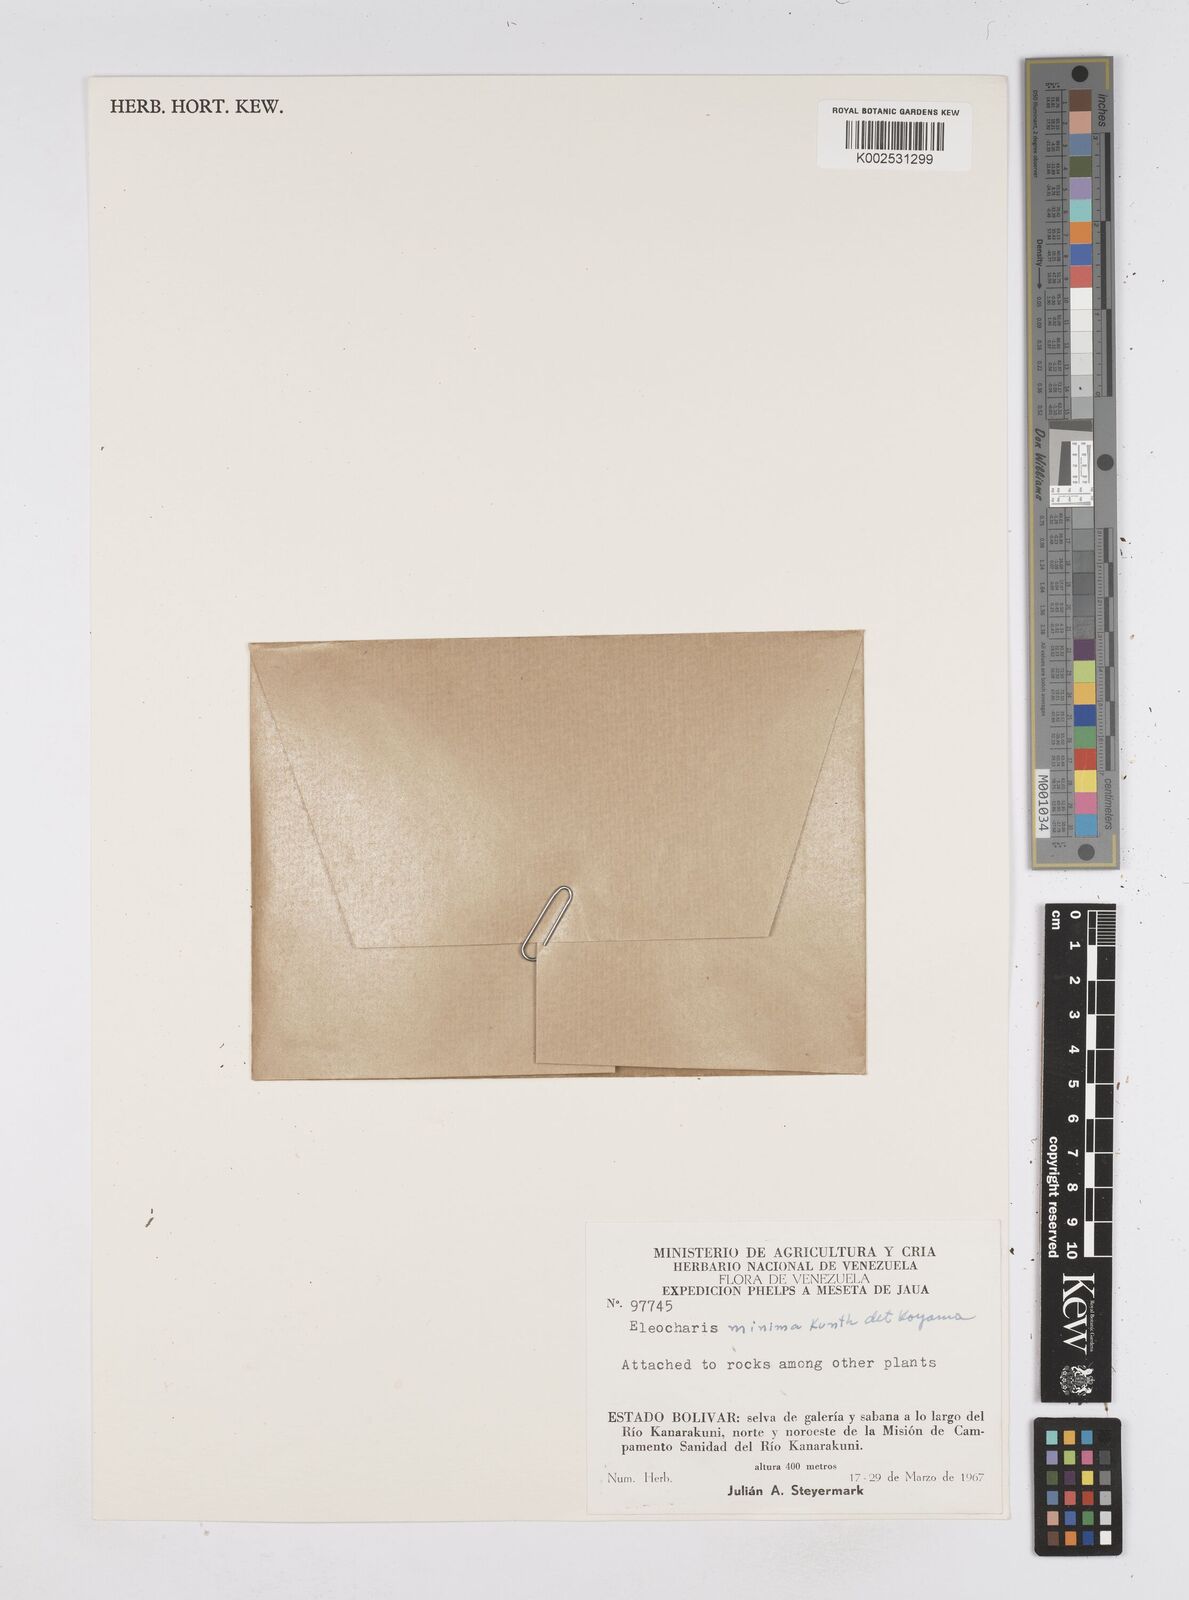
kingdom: Plantae
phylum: Tracheophyta
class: Liliopsida
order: Poales
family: Cyperaceae
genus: Eleocharis
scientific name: Eleocharis minima
